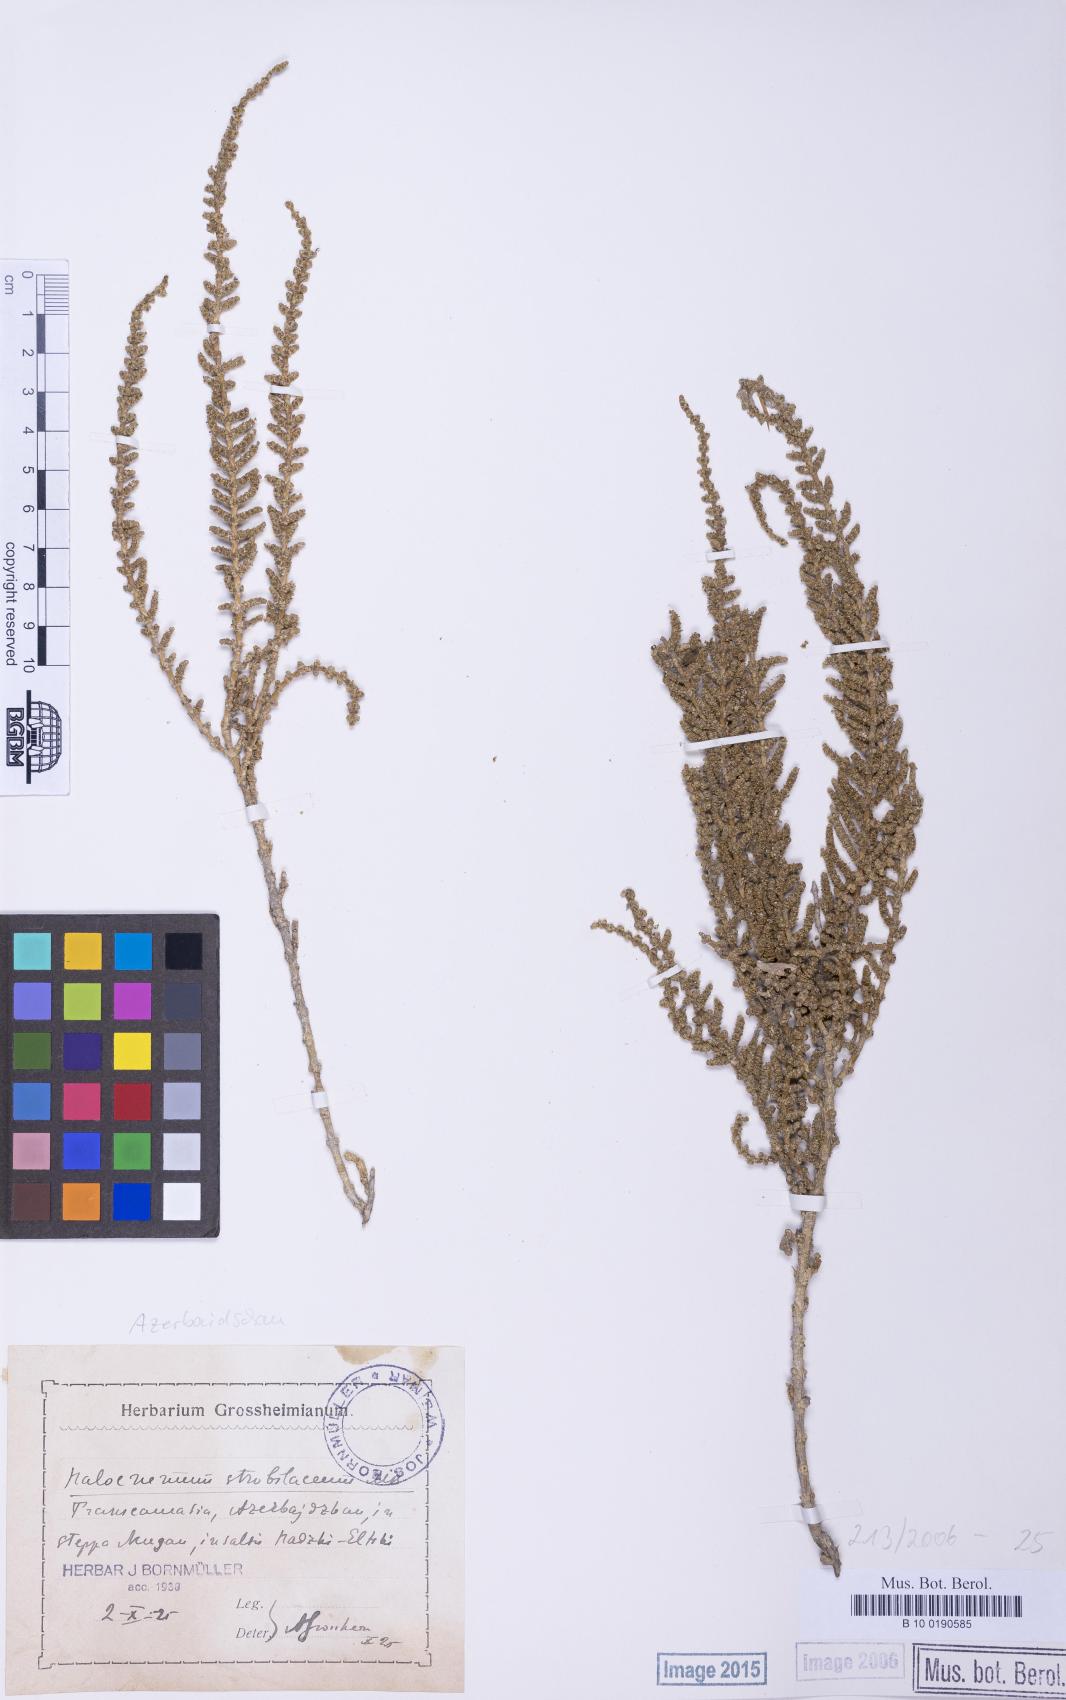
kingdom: Plantae
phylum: Tracheophyta
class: Magnoliopsida
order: Caryophyllales
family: Amaranthaceae
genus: Halocnemum
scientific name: Halocnemum strobilaceum
